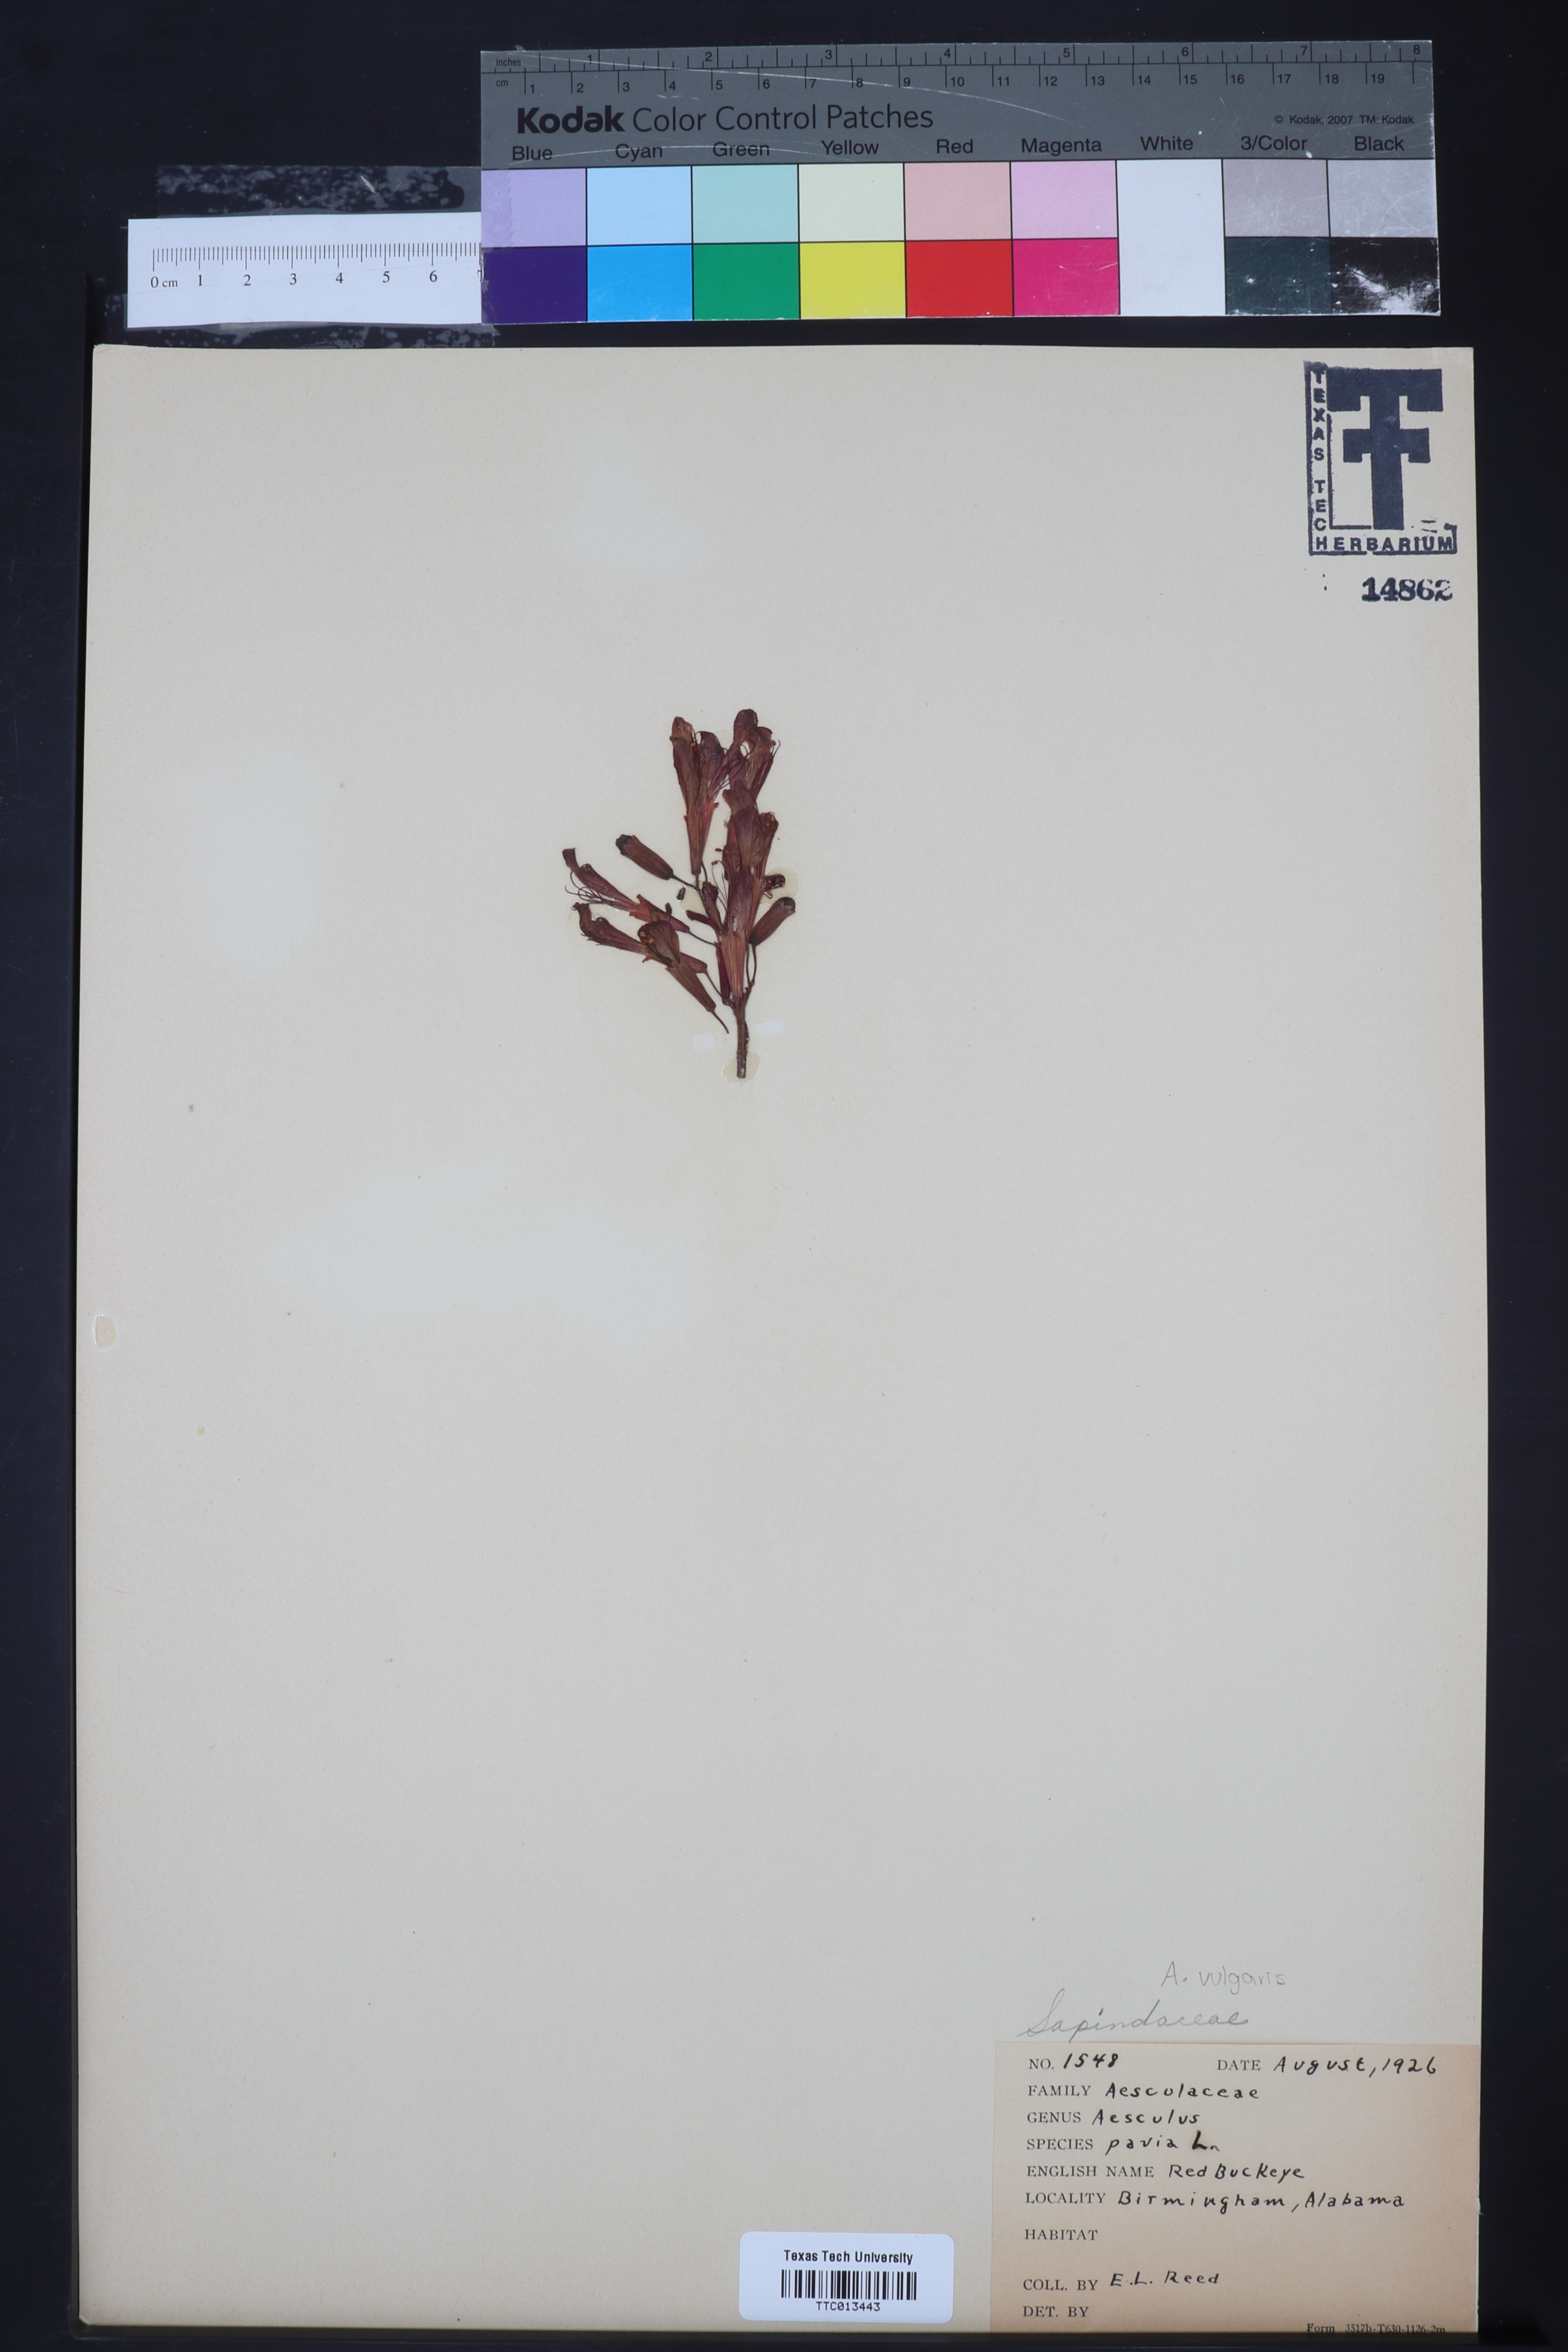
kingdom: Plantae
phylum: Tracheophyta
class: Magnoliopsida
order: Sapindales
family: Sapindaceae
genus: Aesculus
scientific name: Aesculus pavia
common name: Red buckeye
